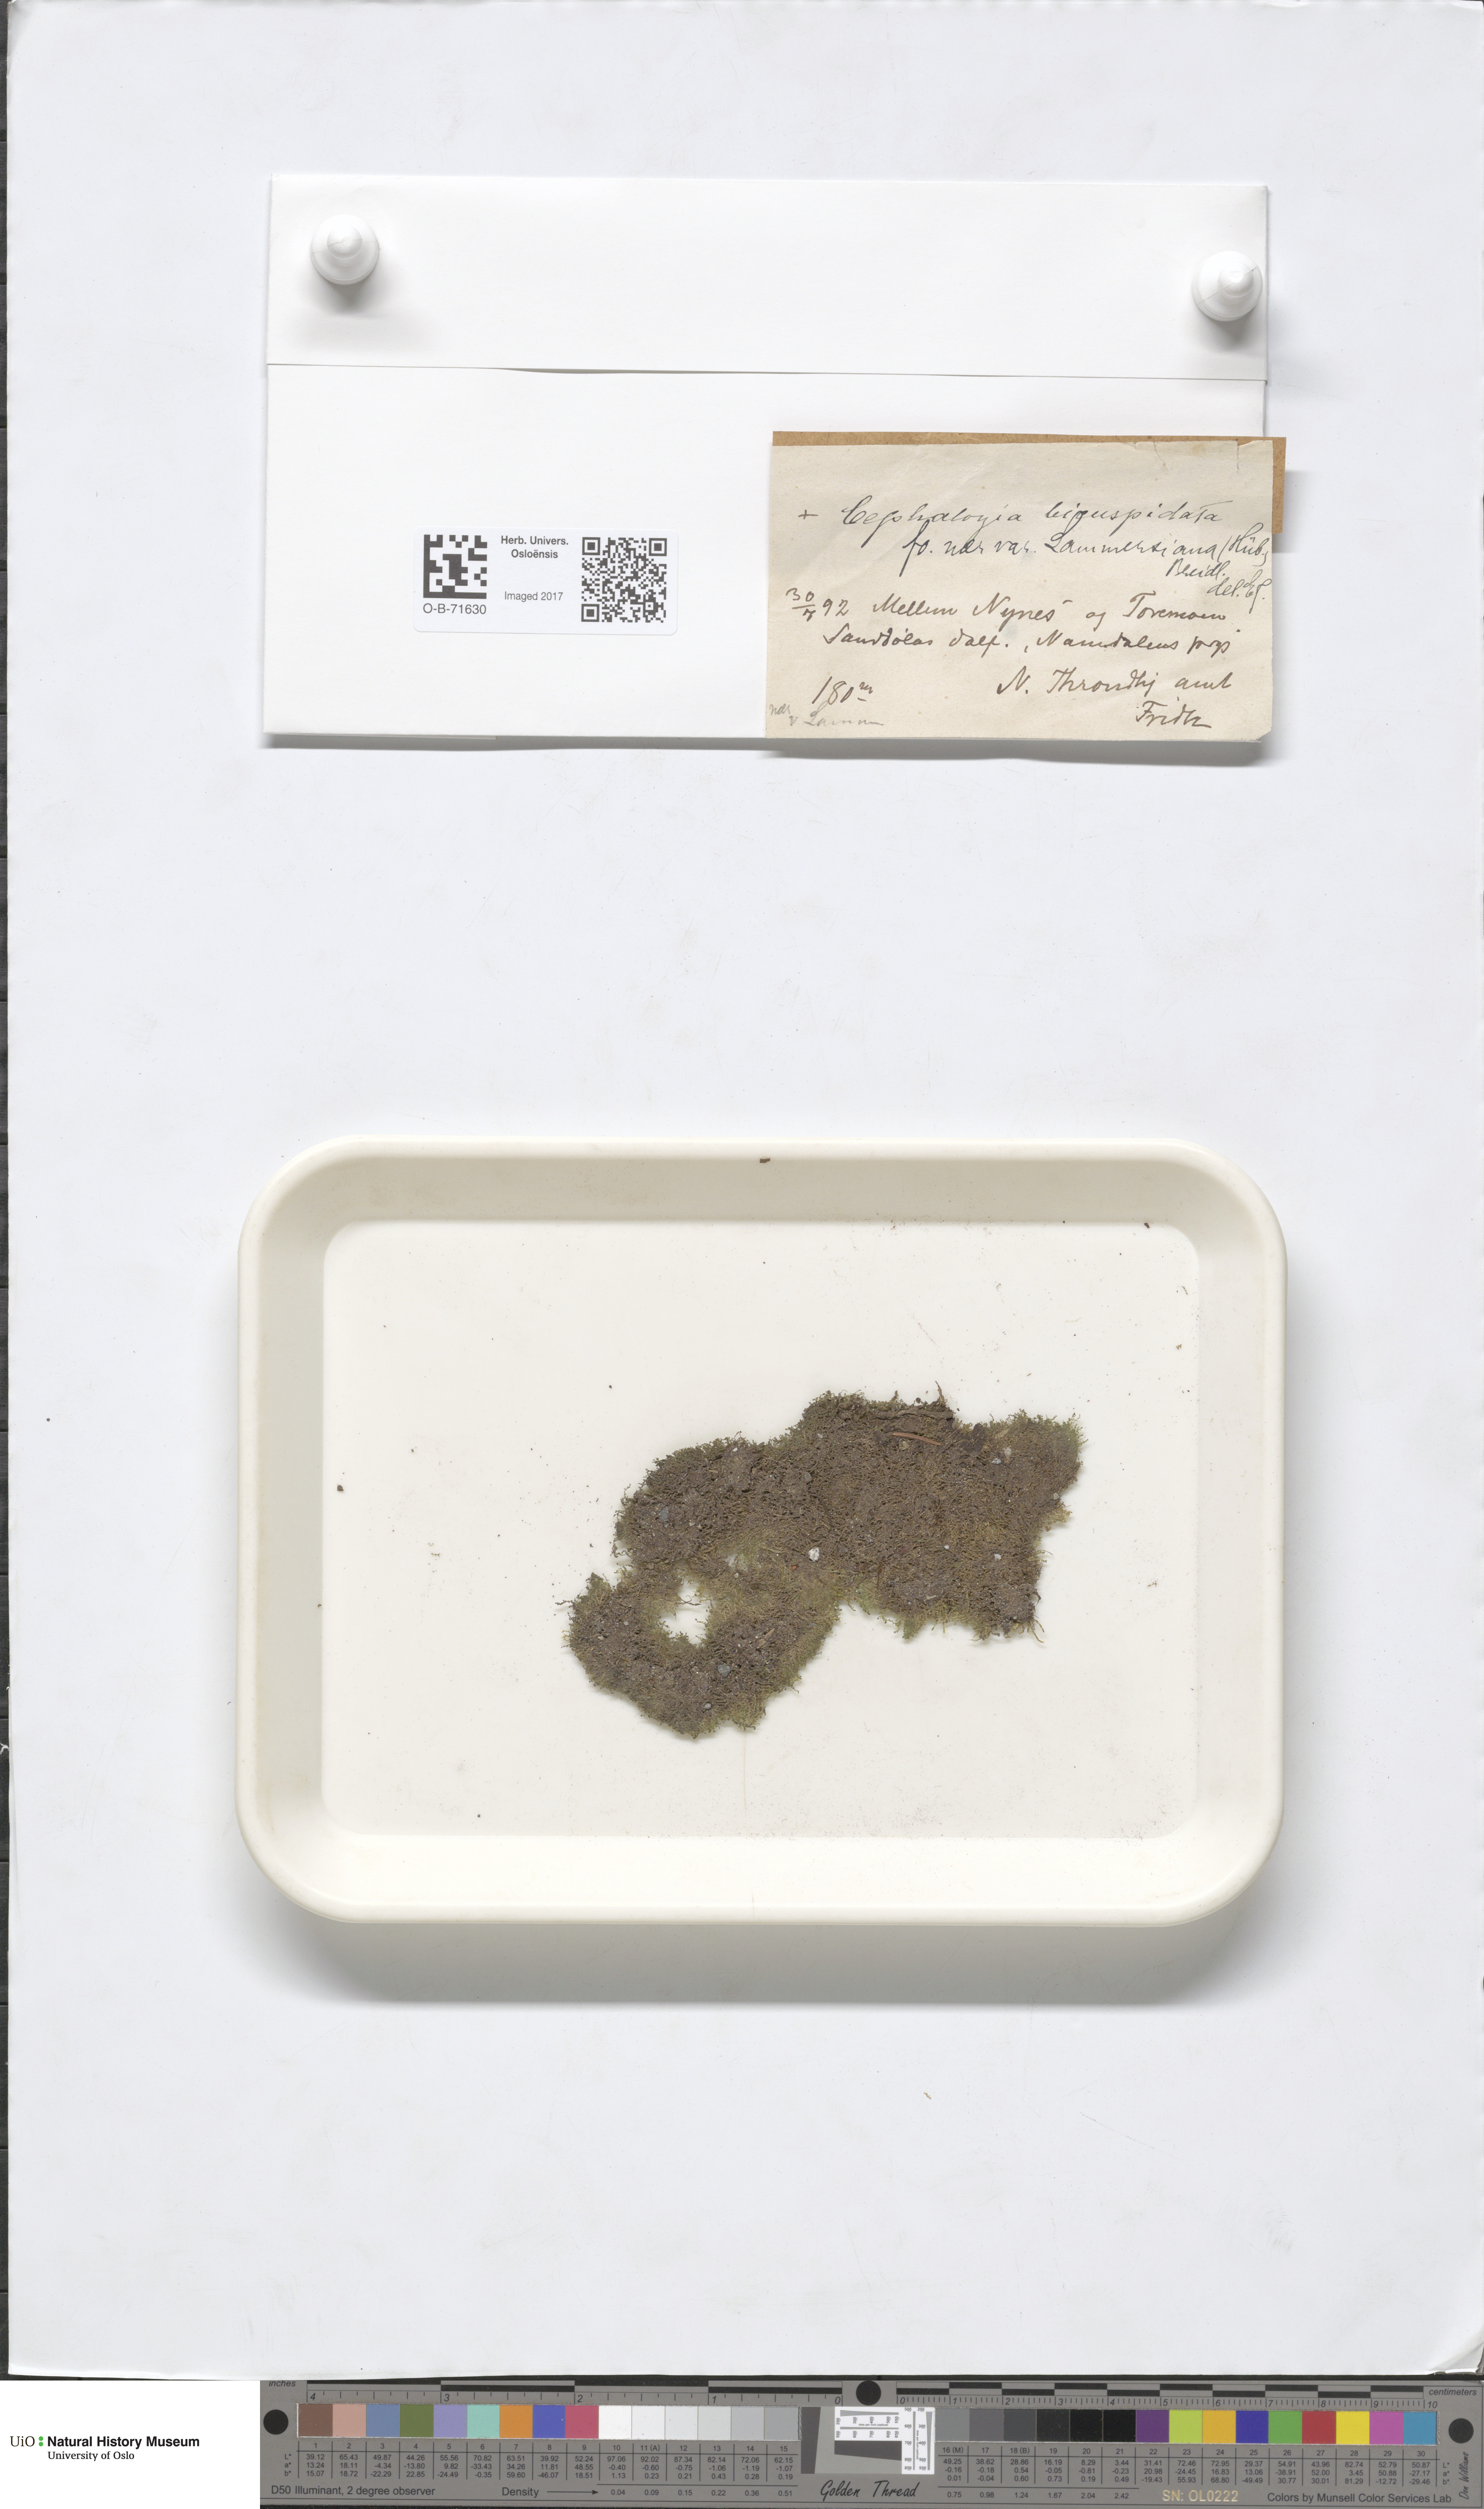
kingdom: Plantae
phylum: Marchantiophyta
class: Jungermanniopsida
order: Jungermanniales
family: Cephaloziaceae
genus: Cephalozia
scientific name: Cephalozia bicuspidata
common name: Two-horned pincerwort
